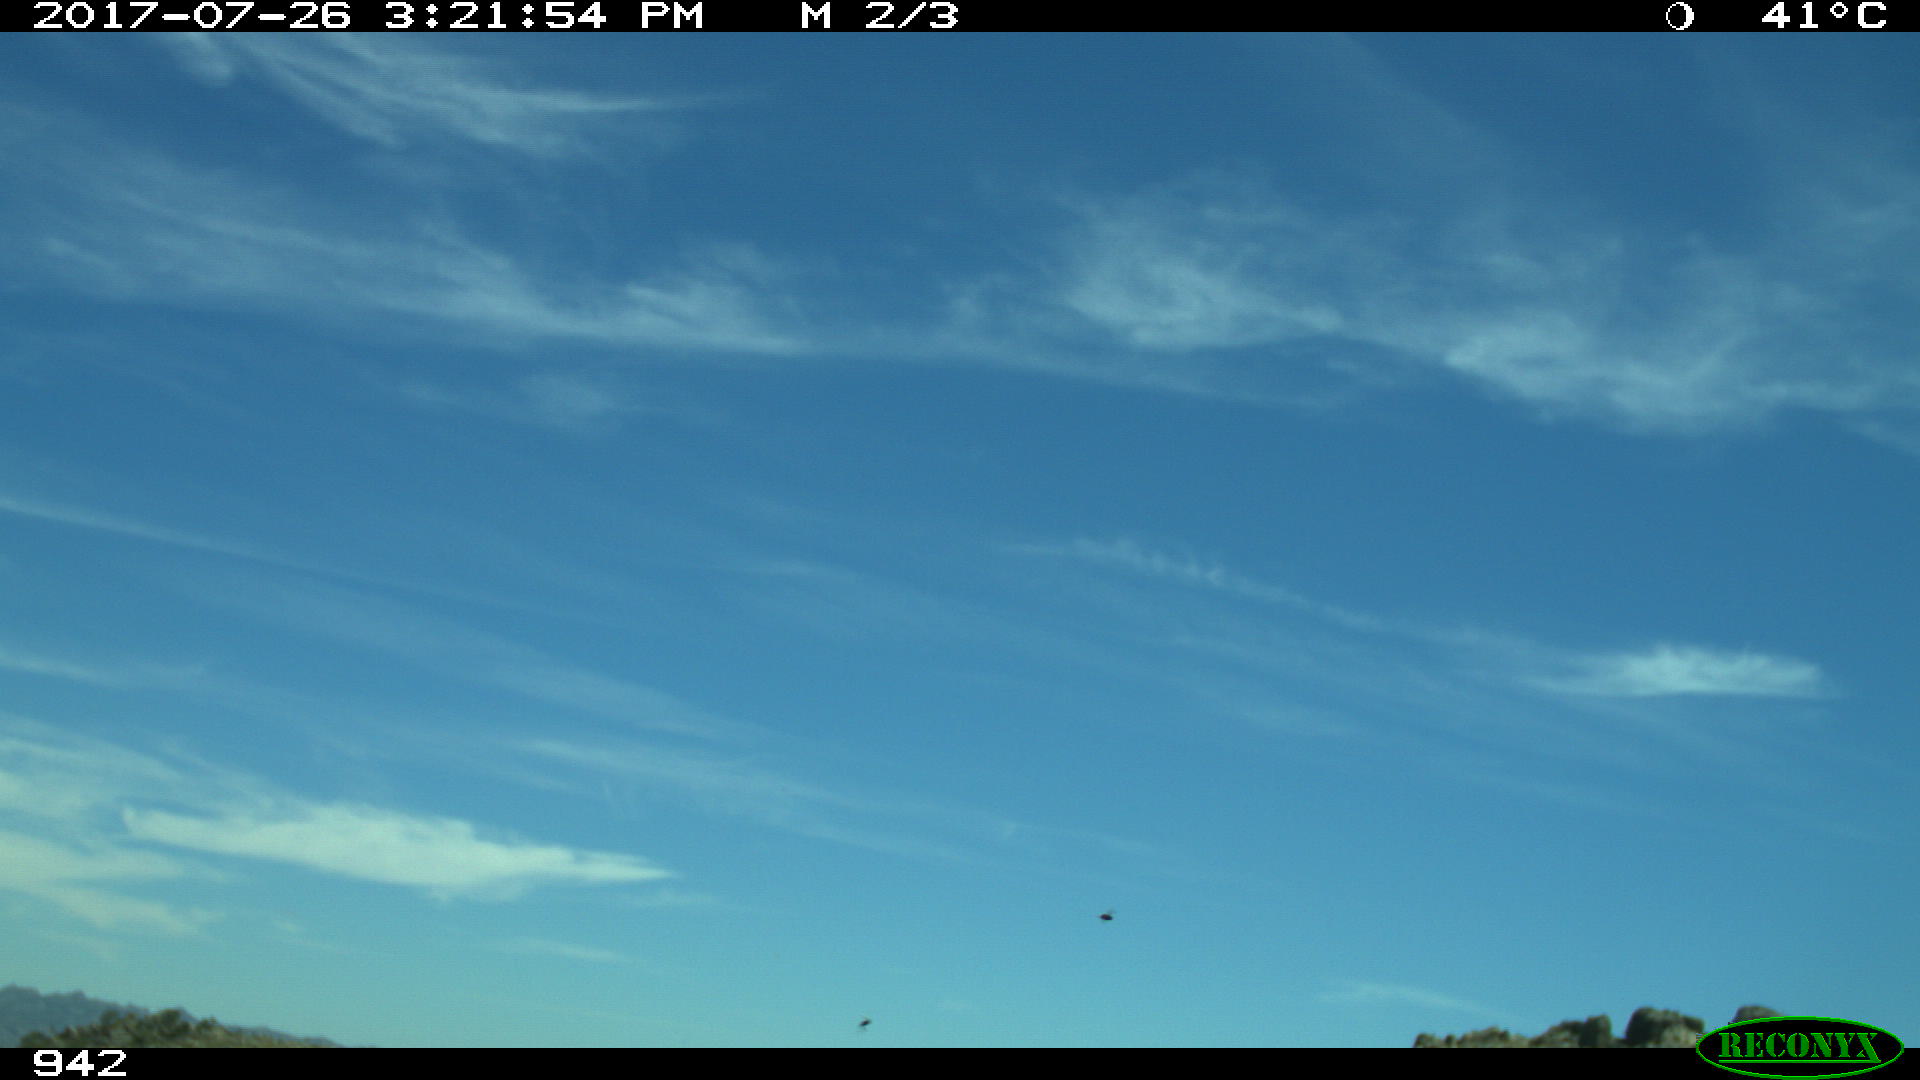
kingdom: Animalia
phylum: Chordata
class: Mammalia
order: Artiodactyla
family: Bovidae
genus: Bos
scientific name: Bos taurus
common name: Domesticated cattle
